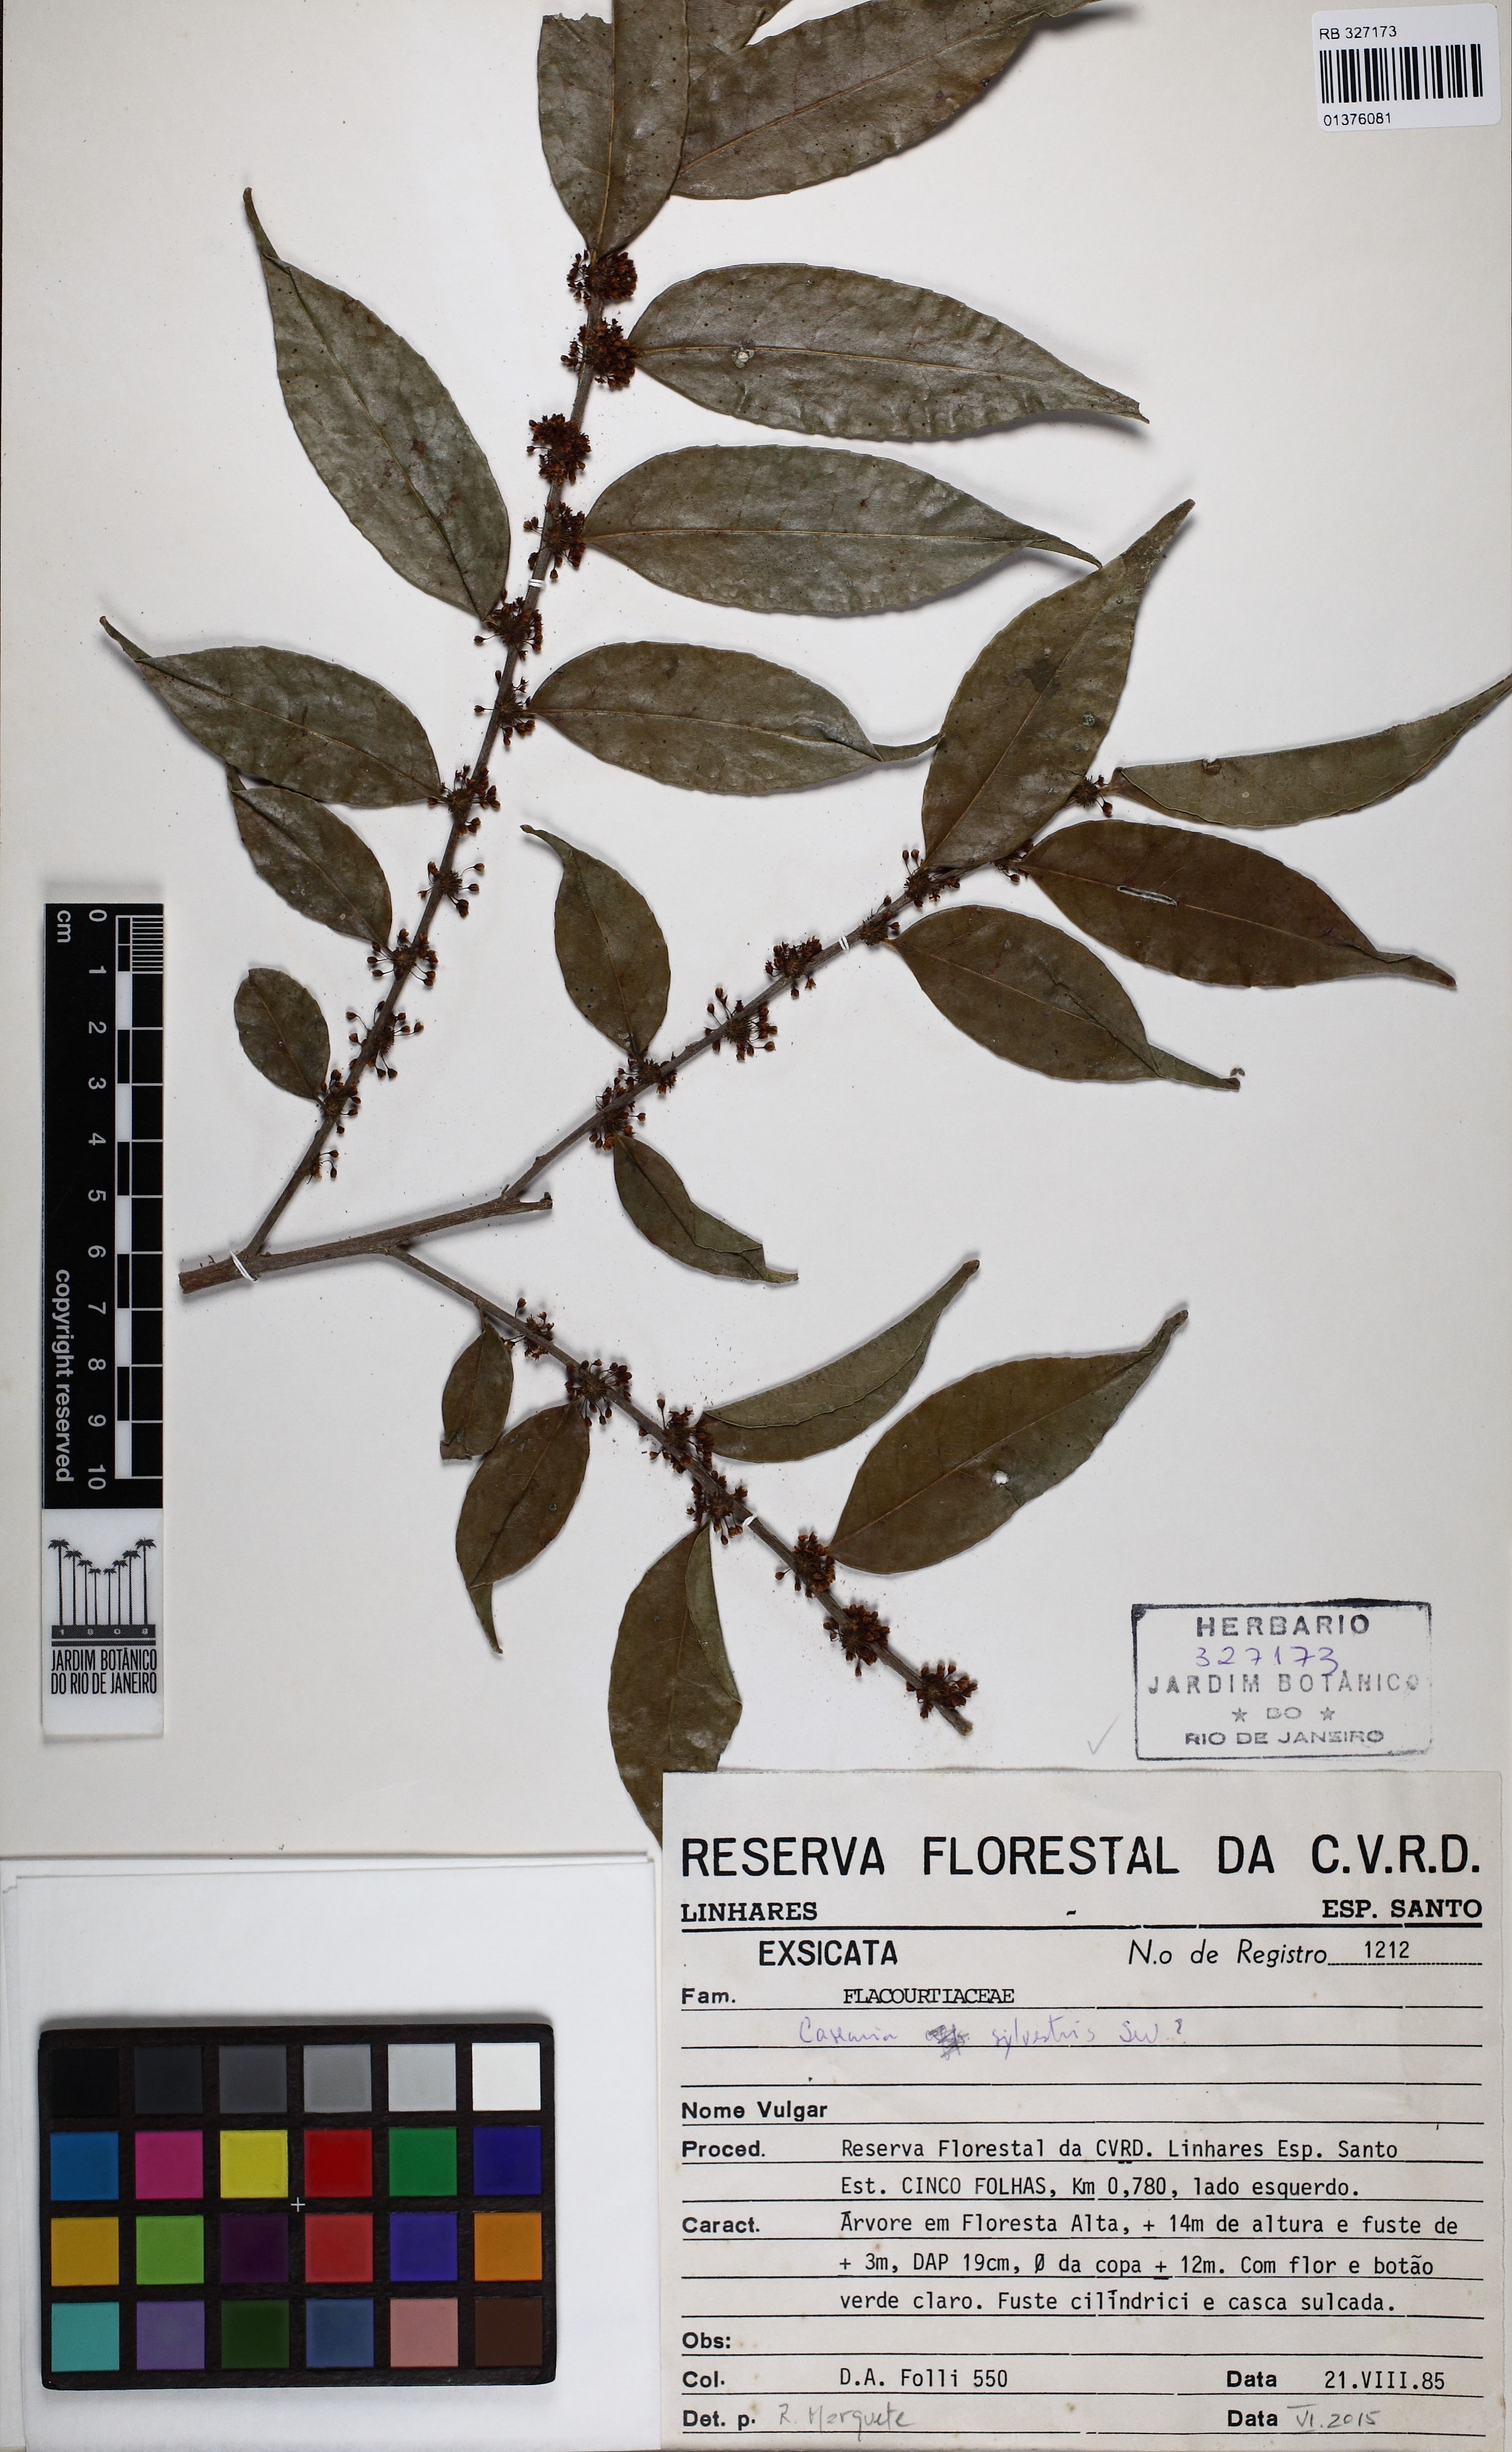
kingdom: Plantae
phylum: Tracheophyta
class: Magnoliopsida
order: Malpighiales
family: Salicaceae
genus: Casearia
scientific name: Casearia sylvestris
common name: Wild sage
